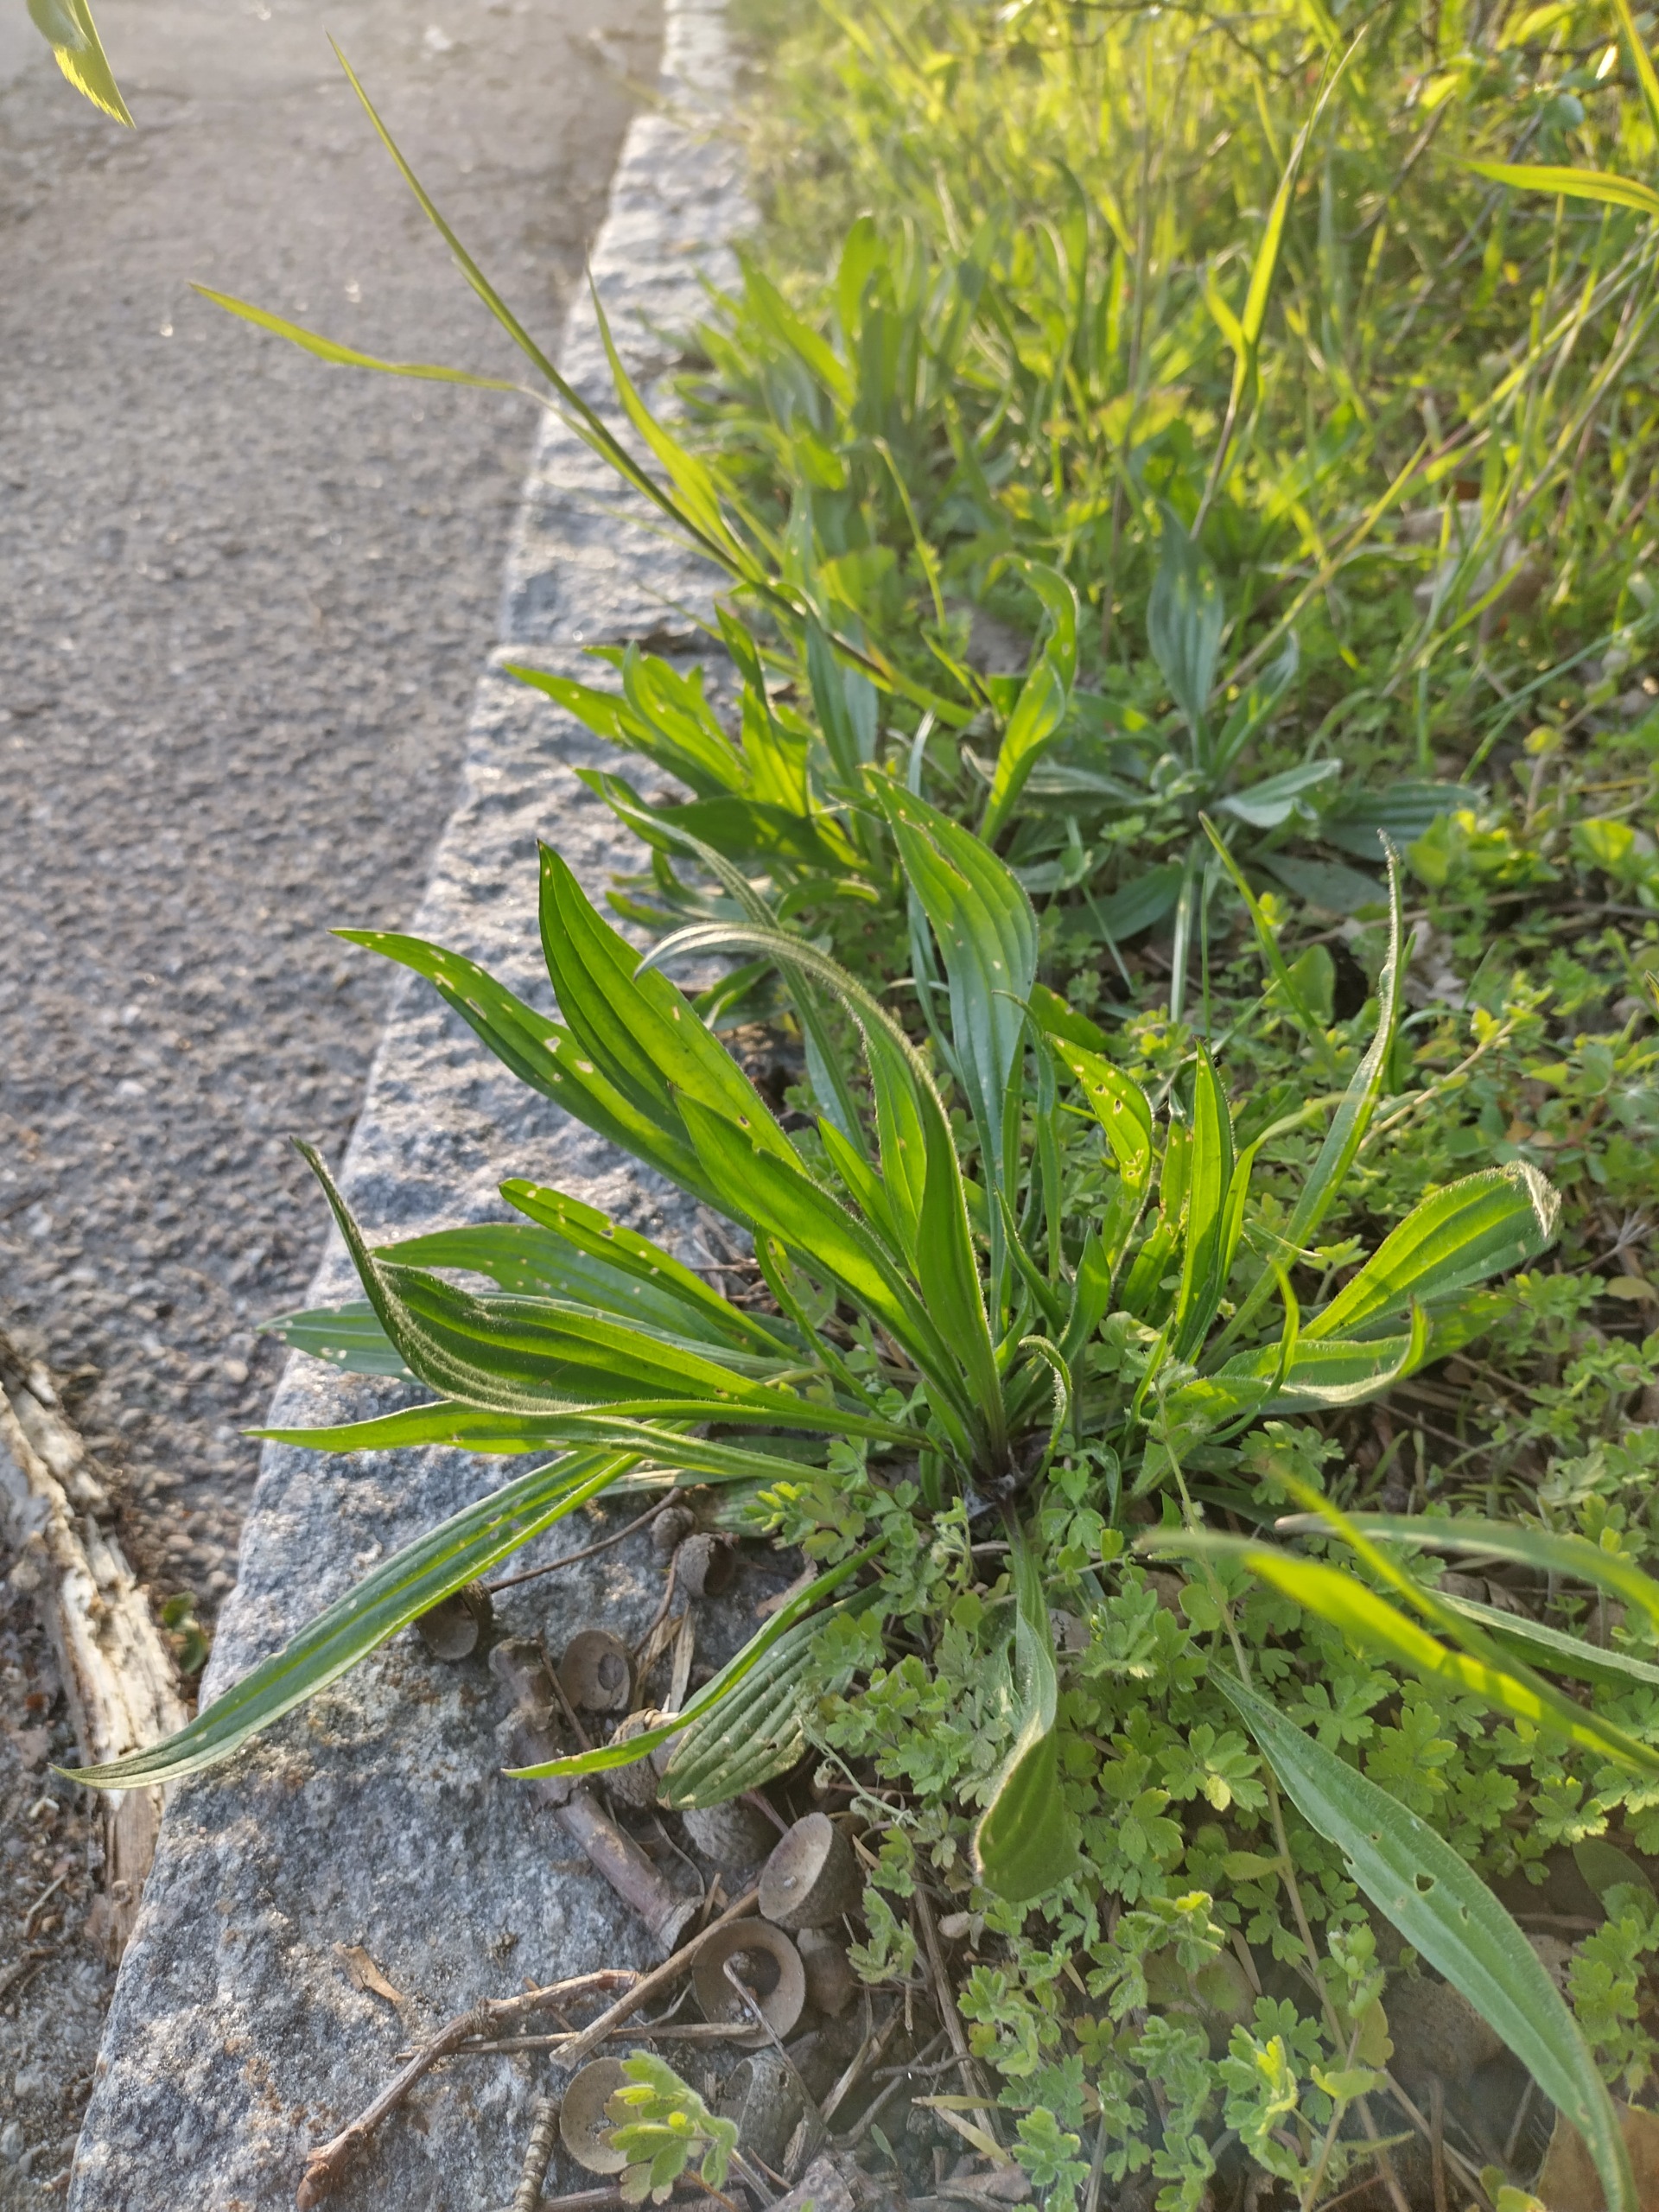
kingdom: Plantae
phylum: Tracheophyta
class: Magnoliopsida
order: Lamiales
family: Plantaginaceae
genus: Plantago
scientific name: Plantago lanceolata
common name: Lancet-vejbred
